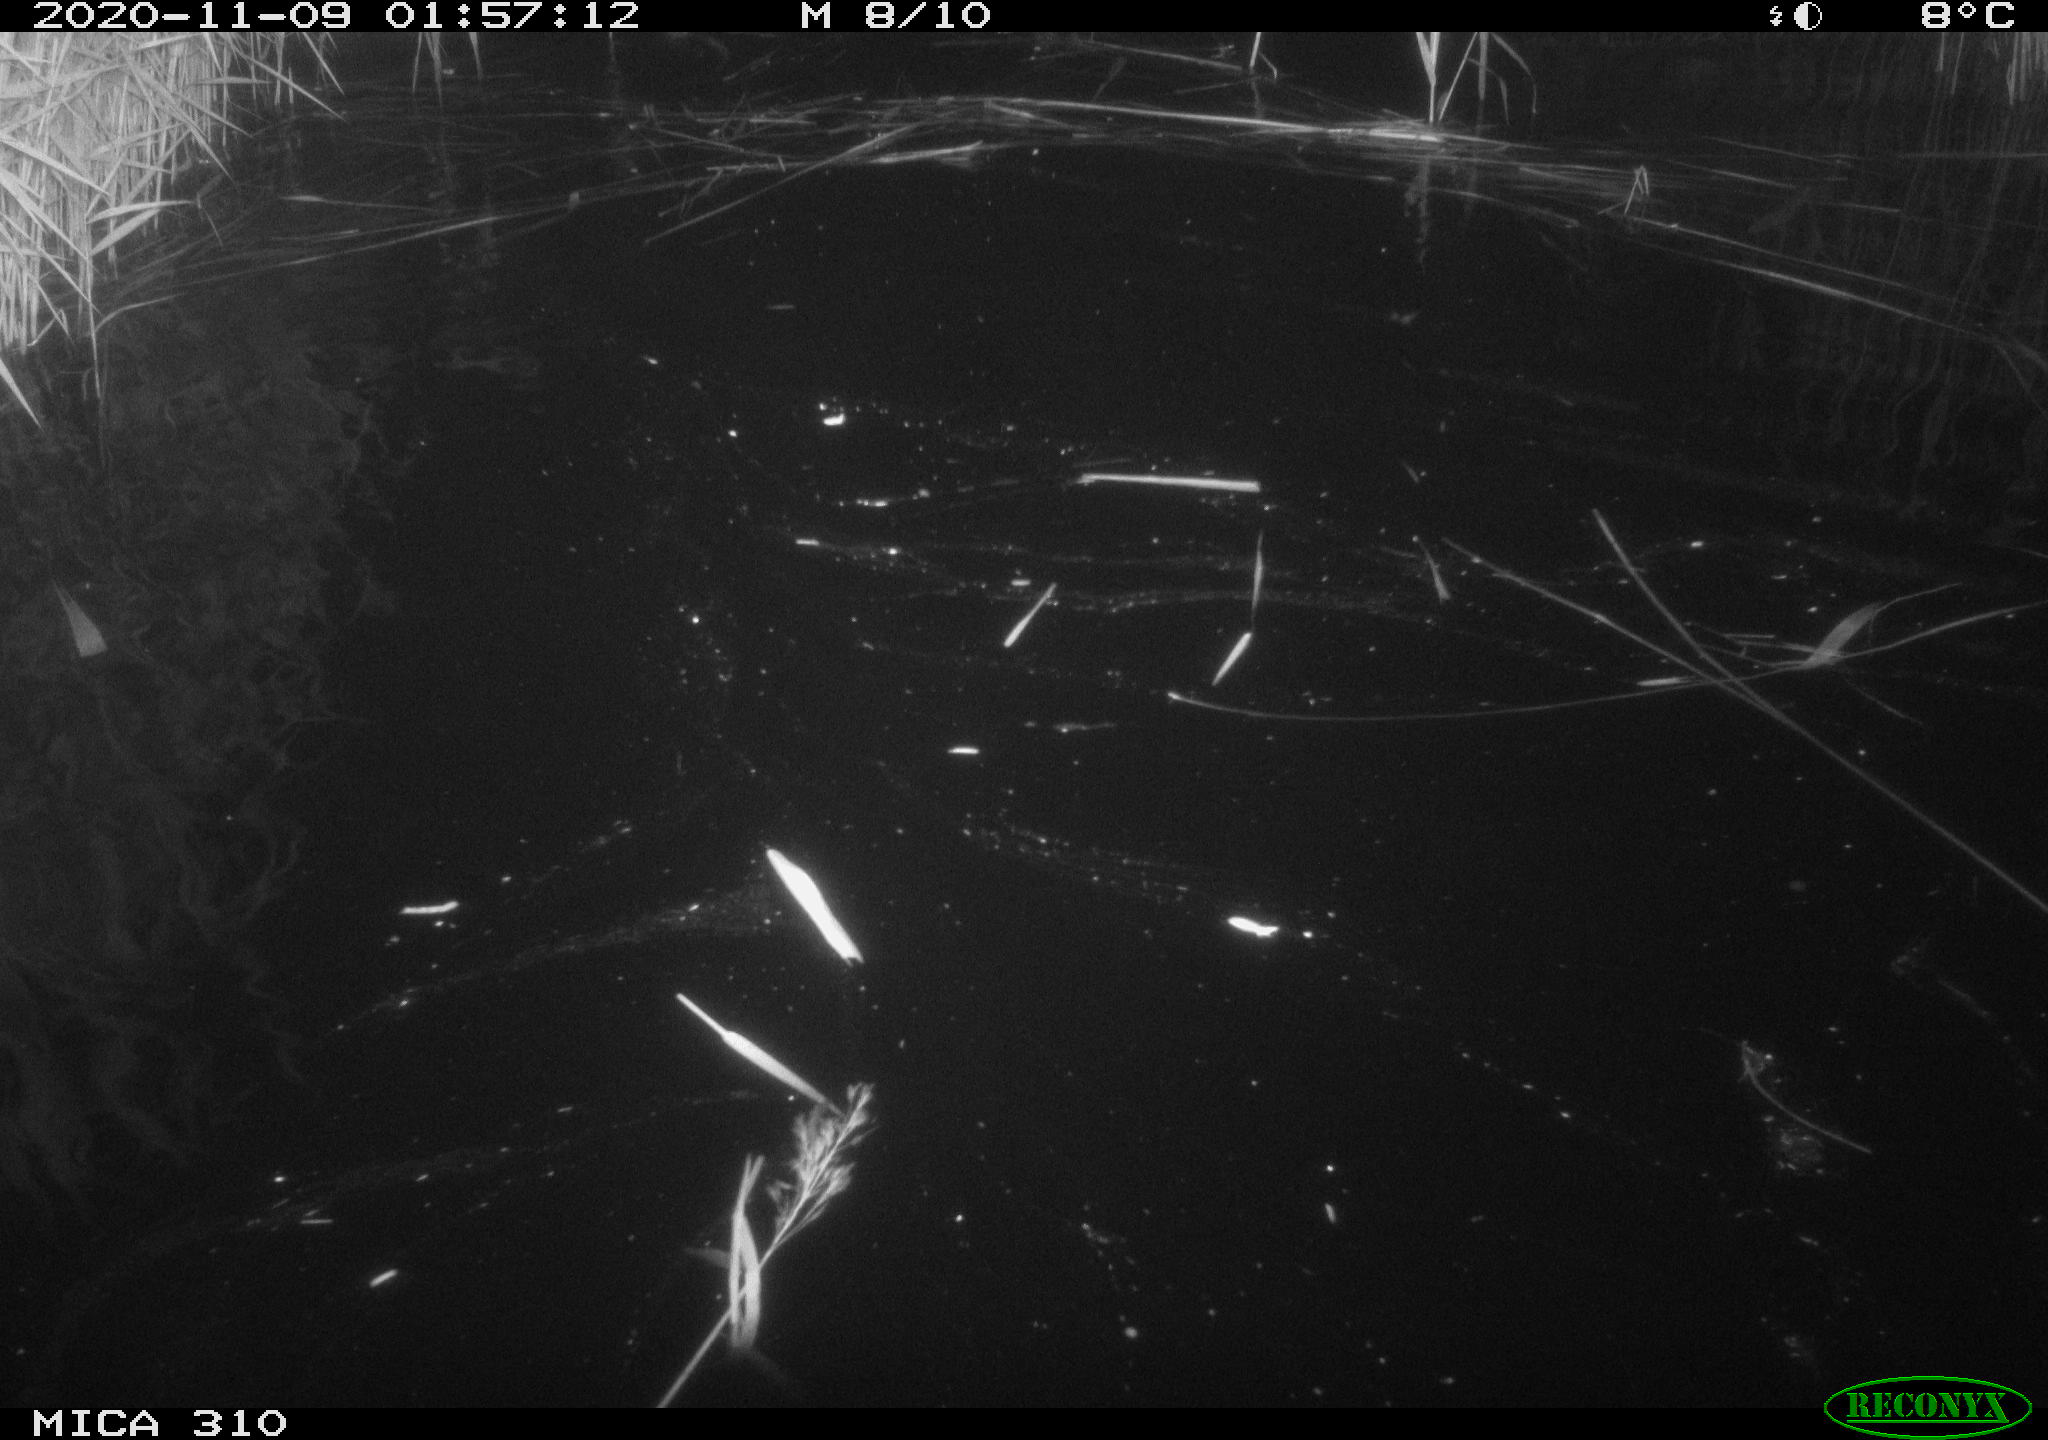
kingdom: Animalia
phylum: Chordata
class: Mammalia
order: Rodentia
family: Cricetidae
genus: Ondatra
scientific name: Ondatra zibethicus
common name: Muskrat
